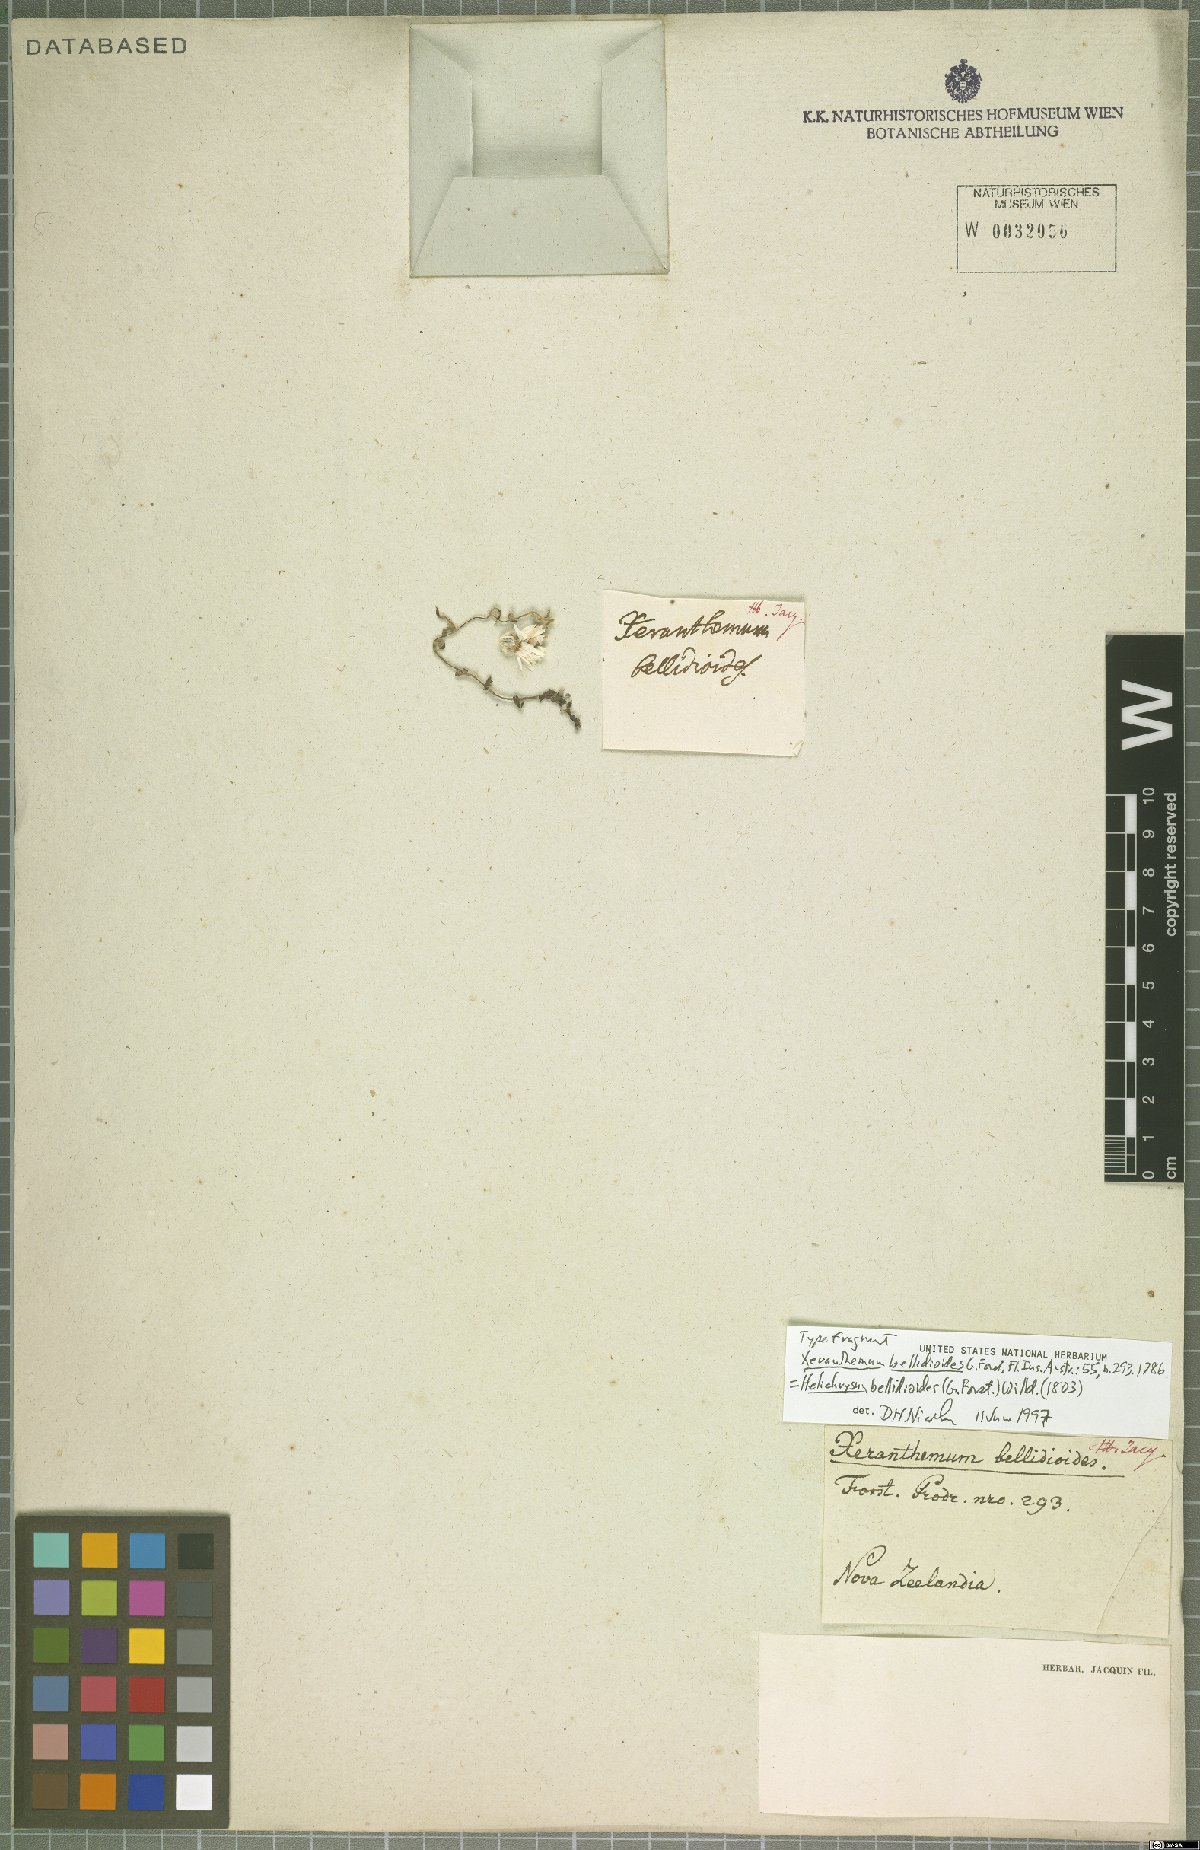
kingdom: Plantae
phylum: Tracheophyta
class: Magnoliopsida
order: Asterales
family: Asteraceae
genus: Anaphalioides
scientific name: Anaphalioides bellidioides
